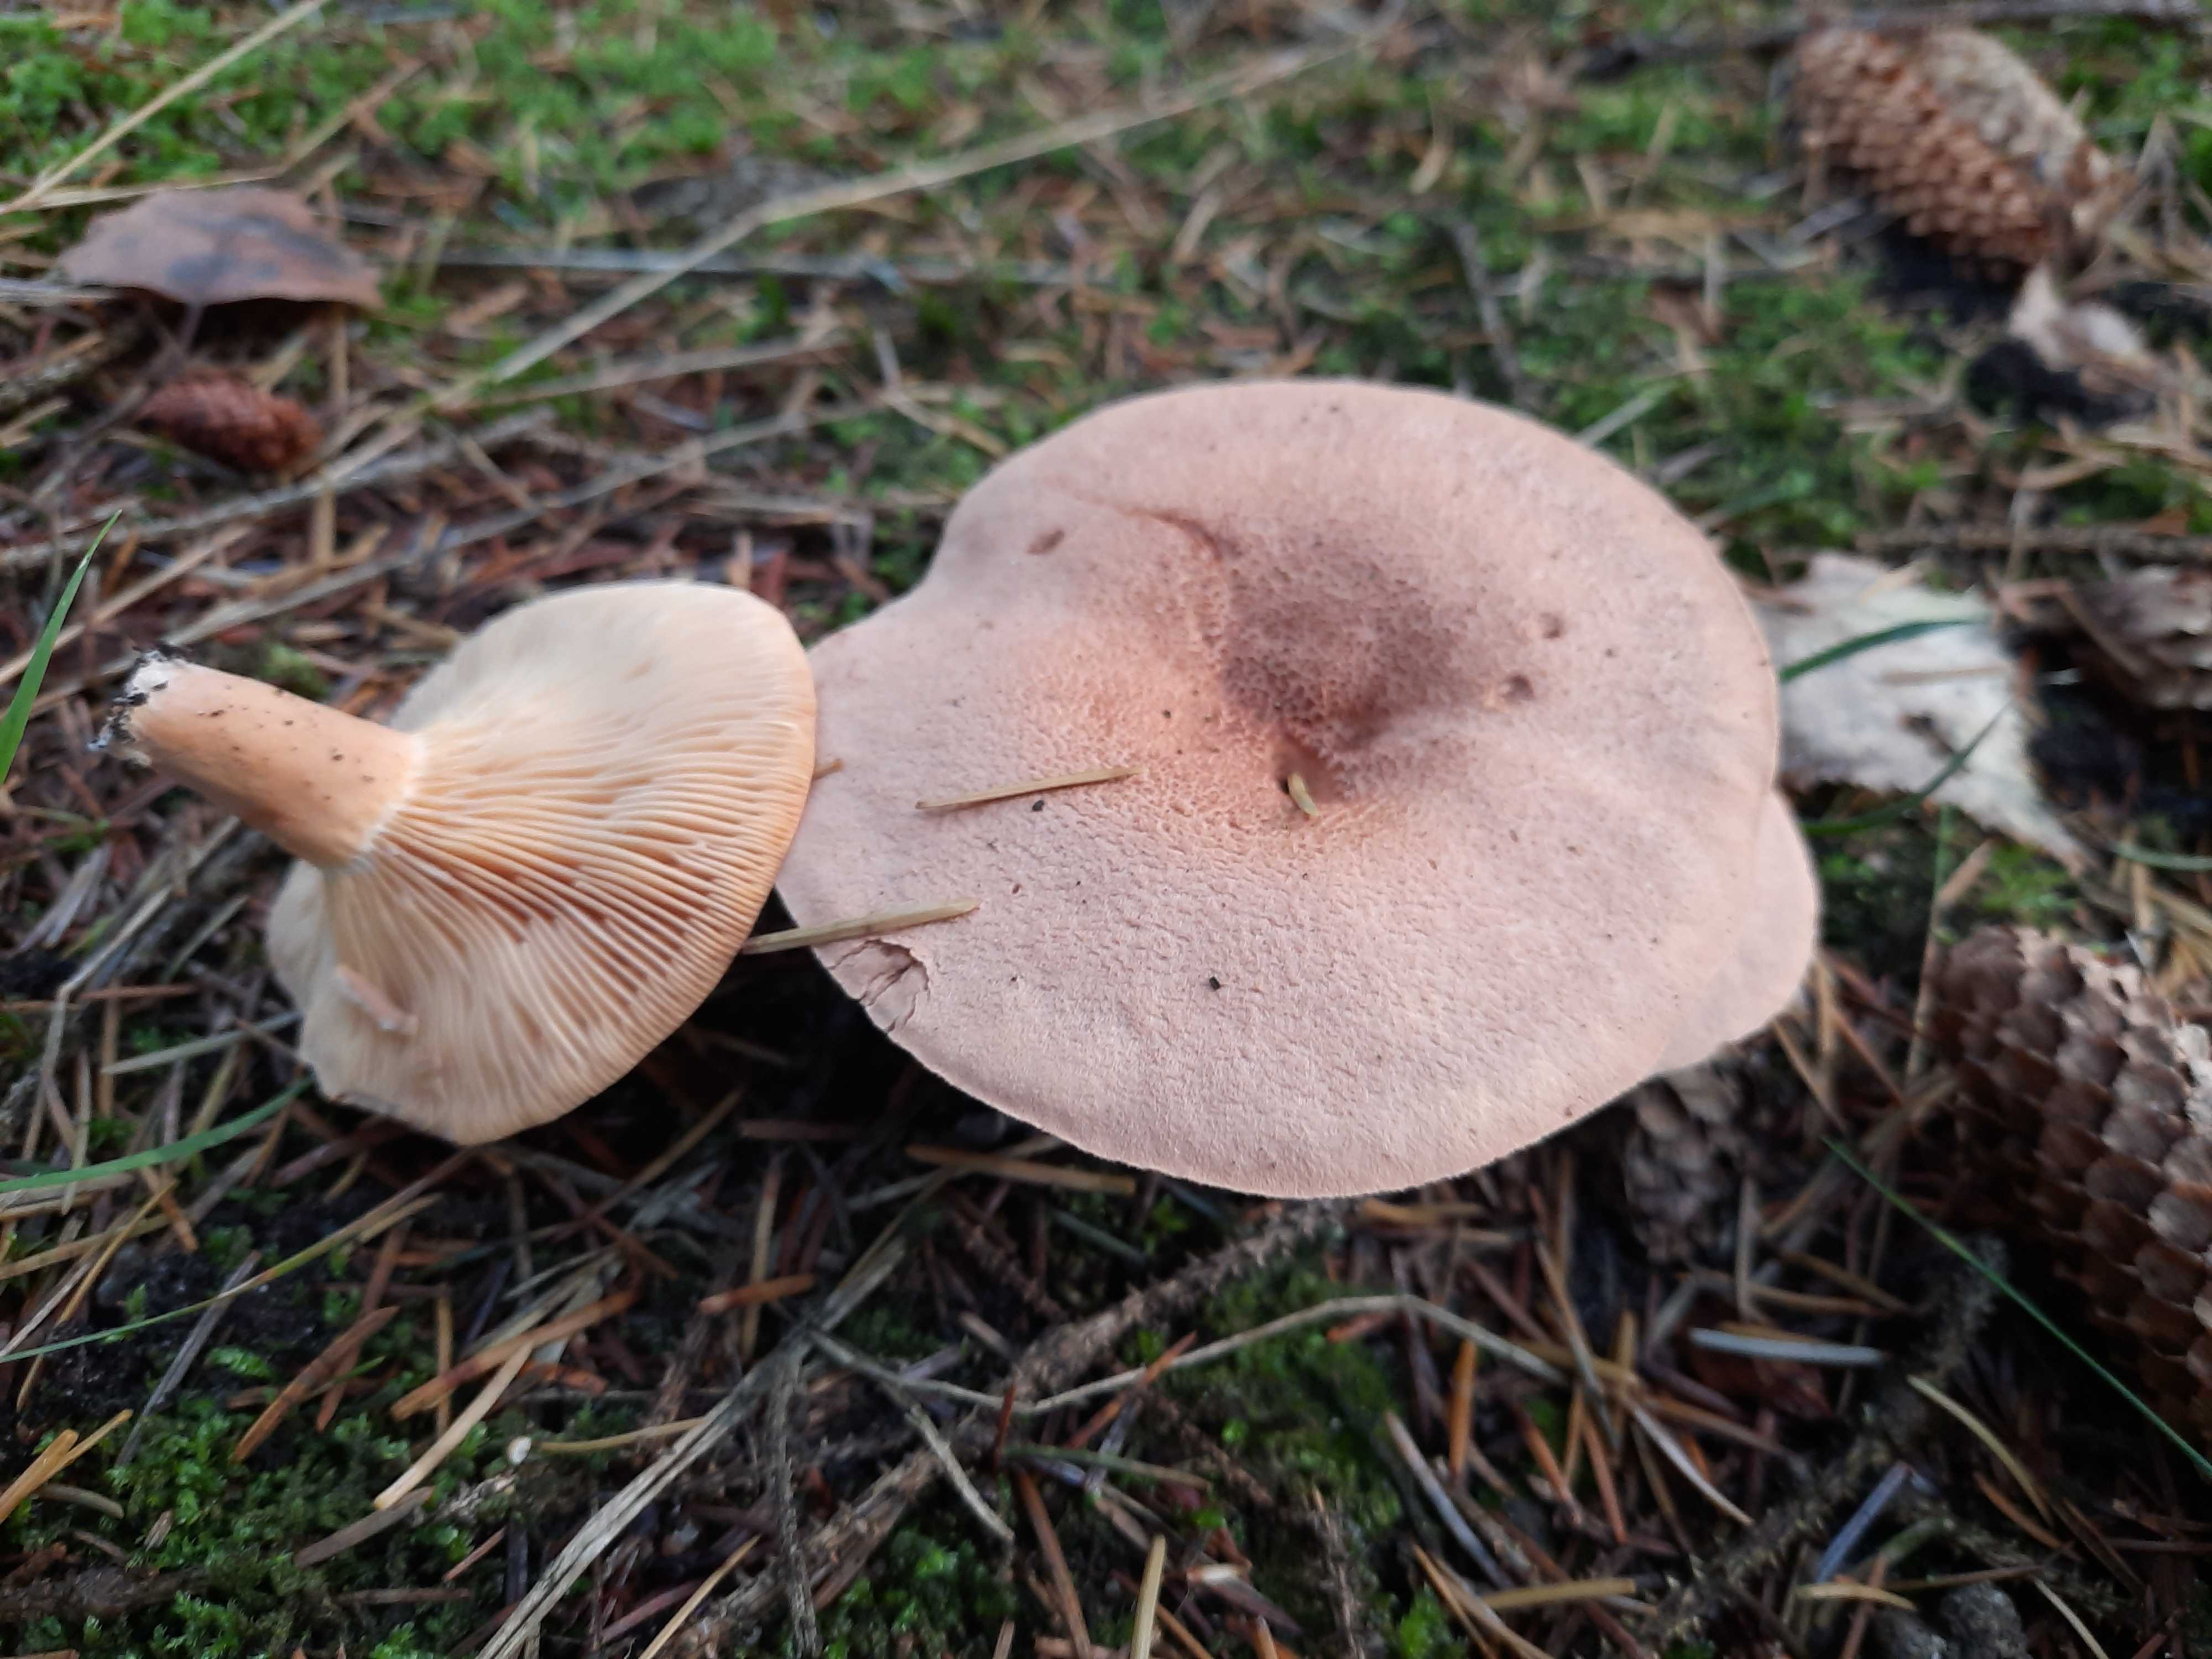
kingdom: Fungi
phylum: Basidiomycota
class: Agaricomycetes
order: Russulales
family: Russulaceae
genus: Lactarius
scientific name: Lactarius helvus
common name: mose-mælkehat
